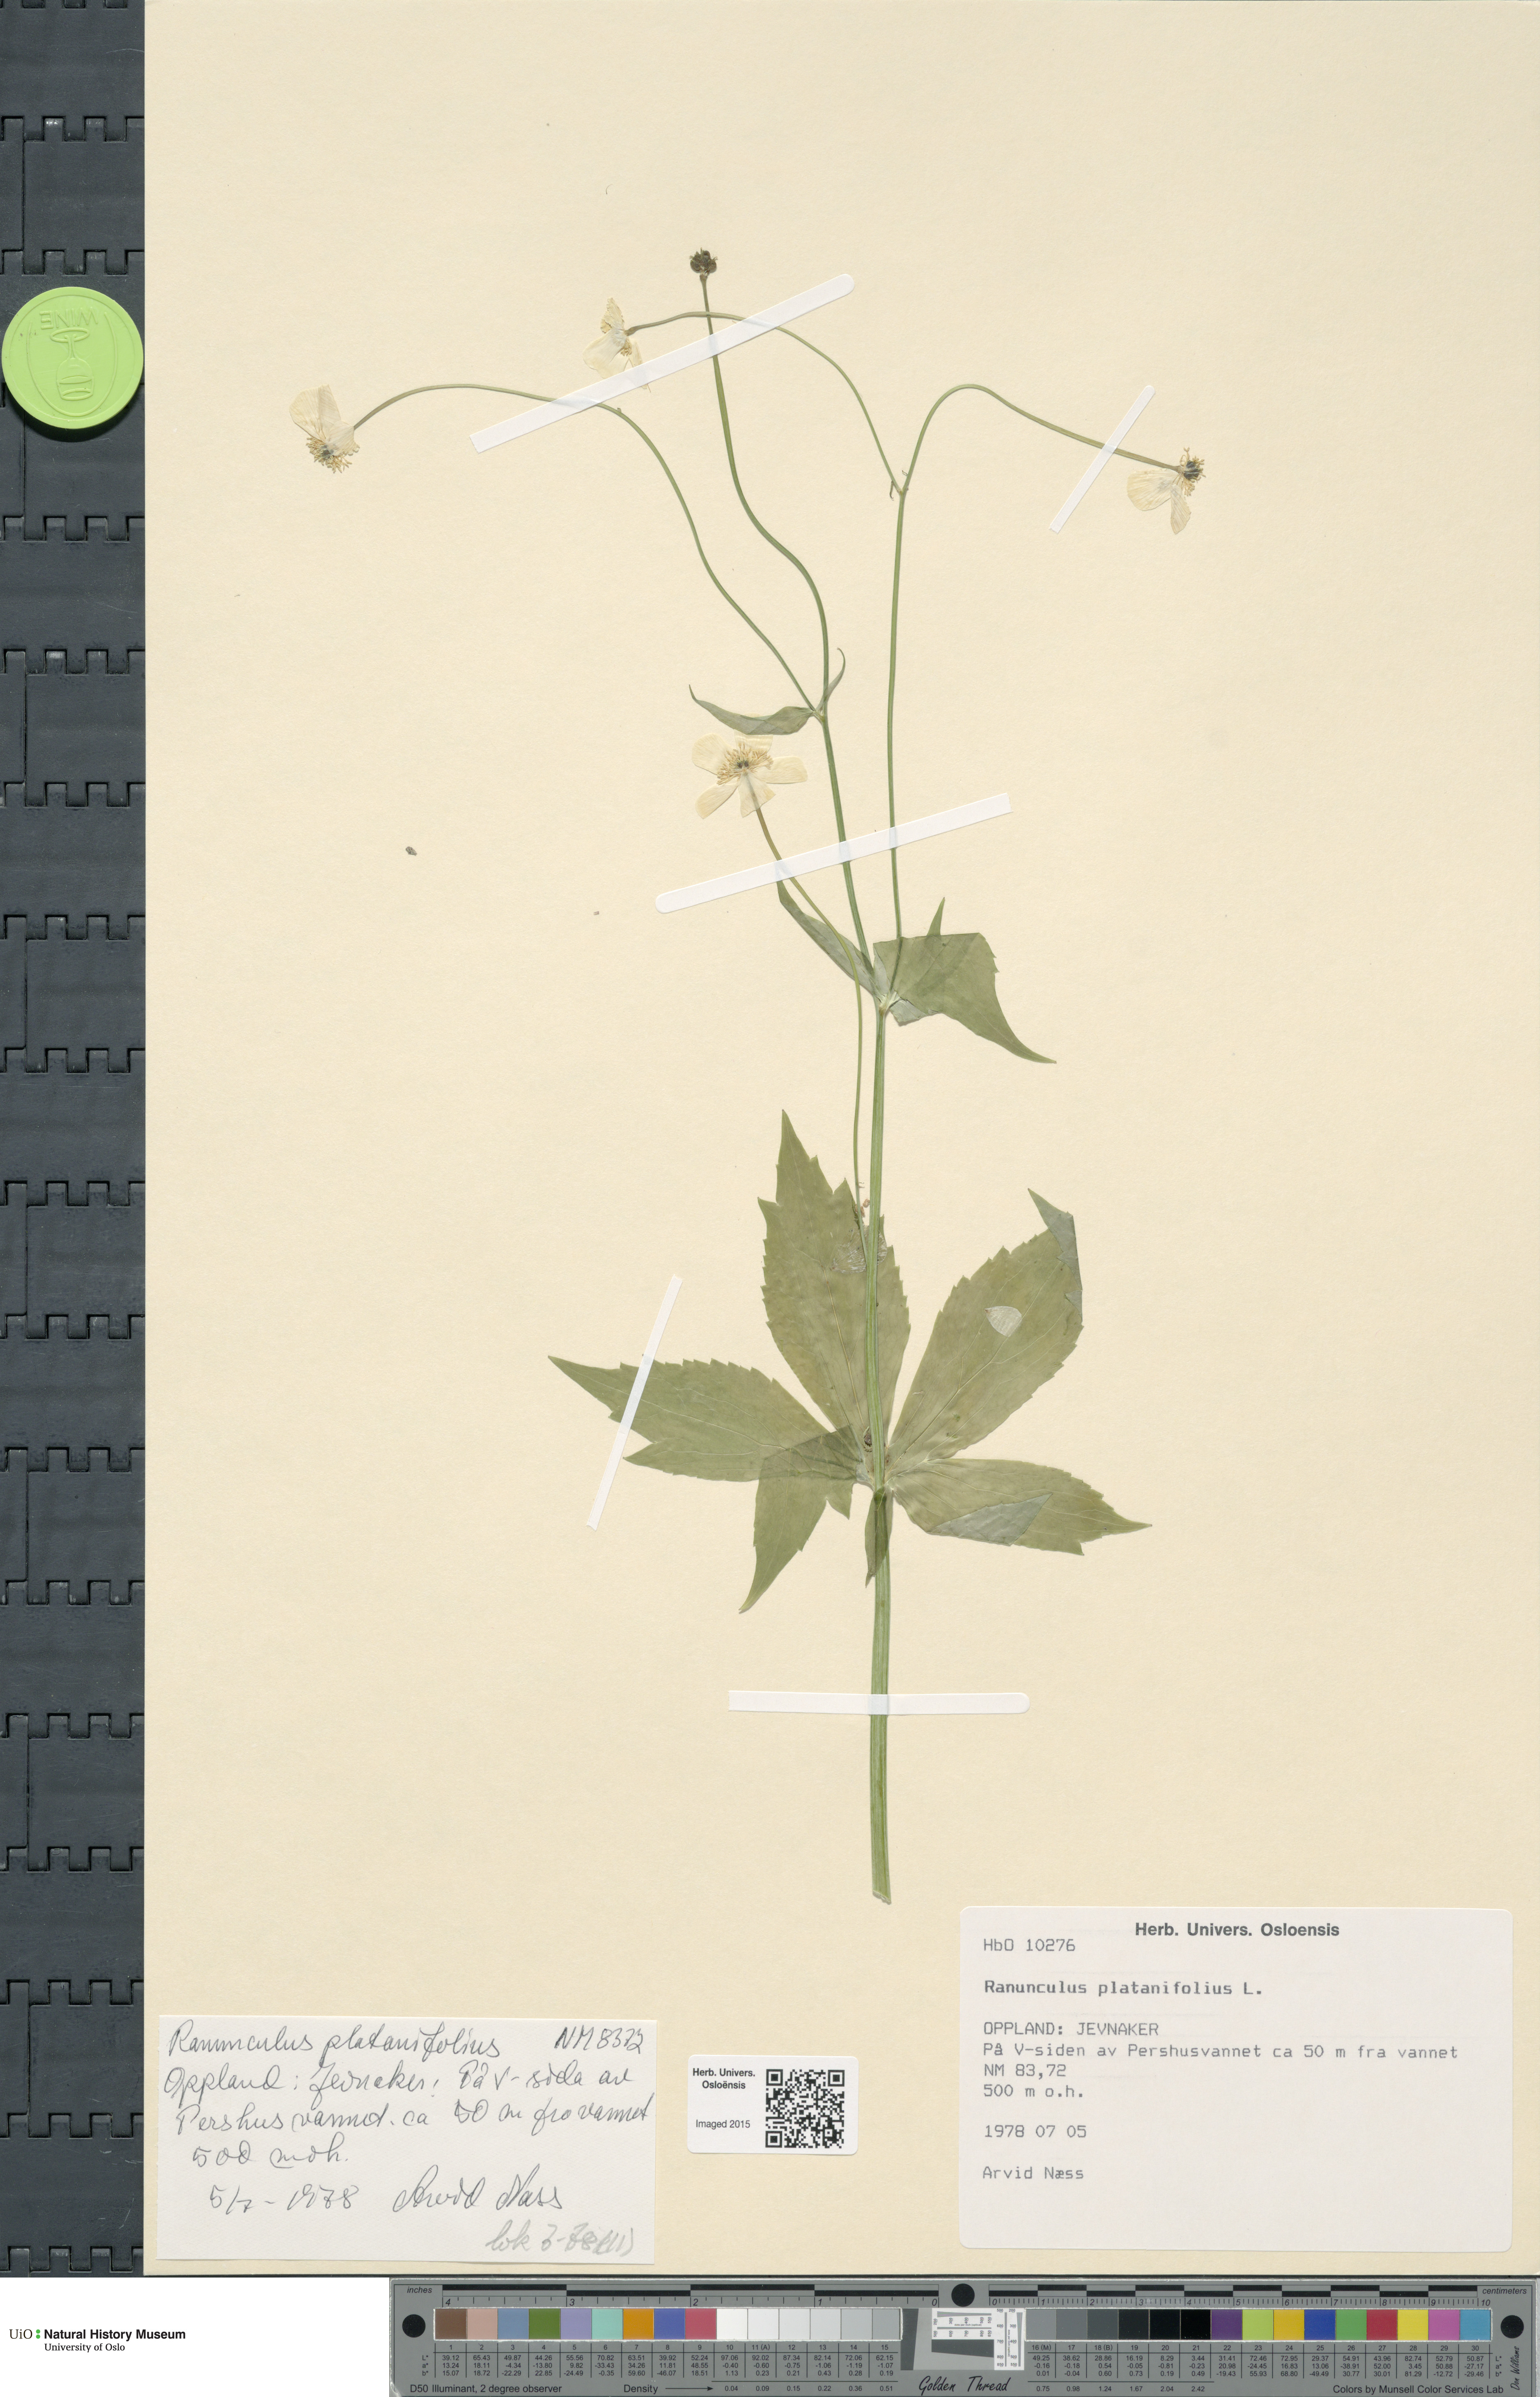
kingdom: Plantae
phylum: Tracheophyta
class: Magnoliopsida
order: Ranunculales
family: Ranunculaceae
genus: Ranunculus
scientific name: Ranunculus platanifolius
